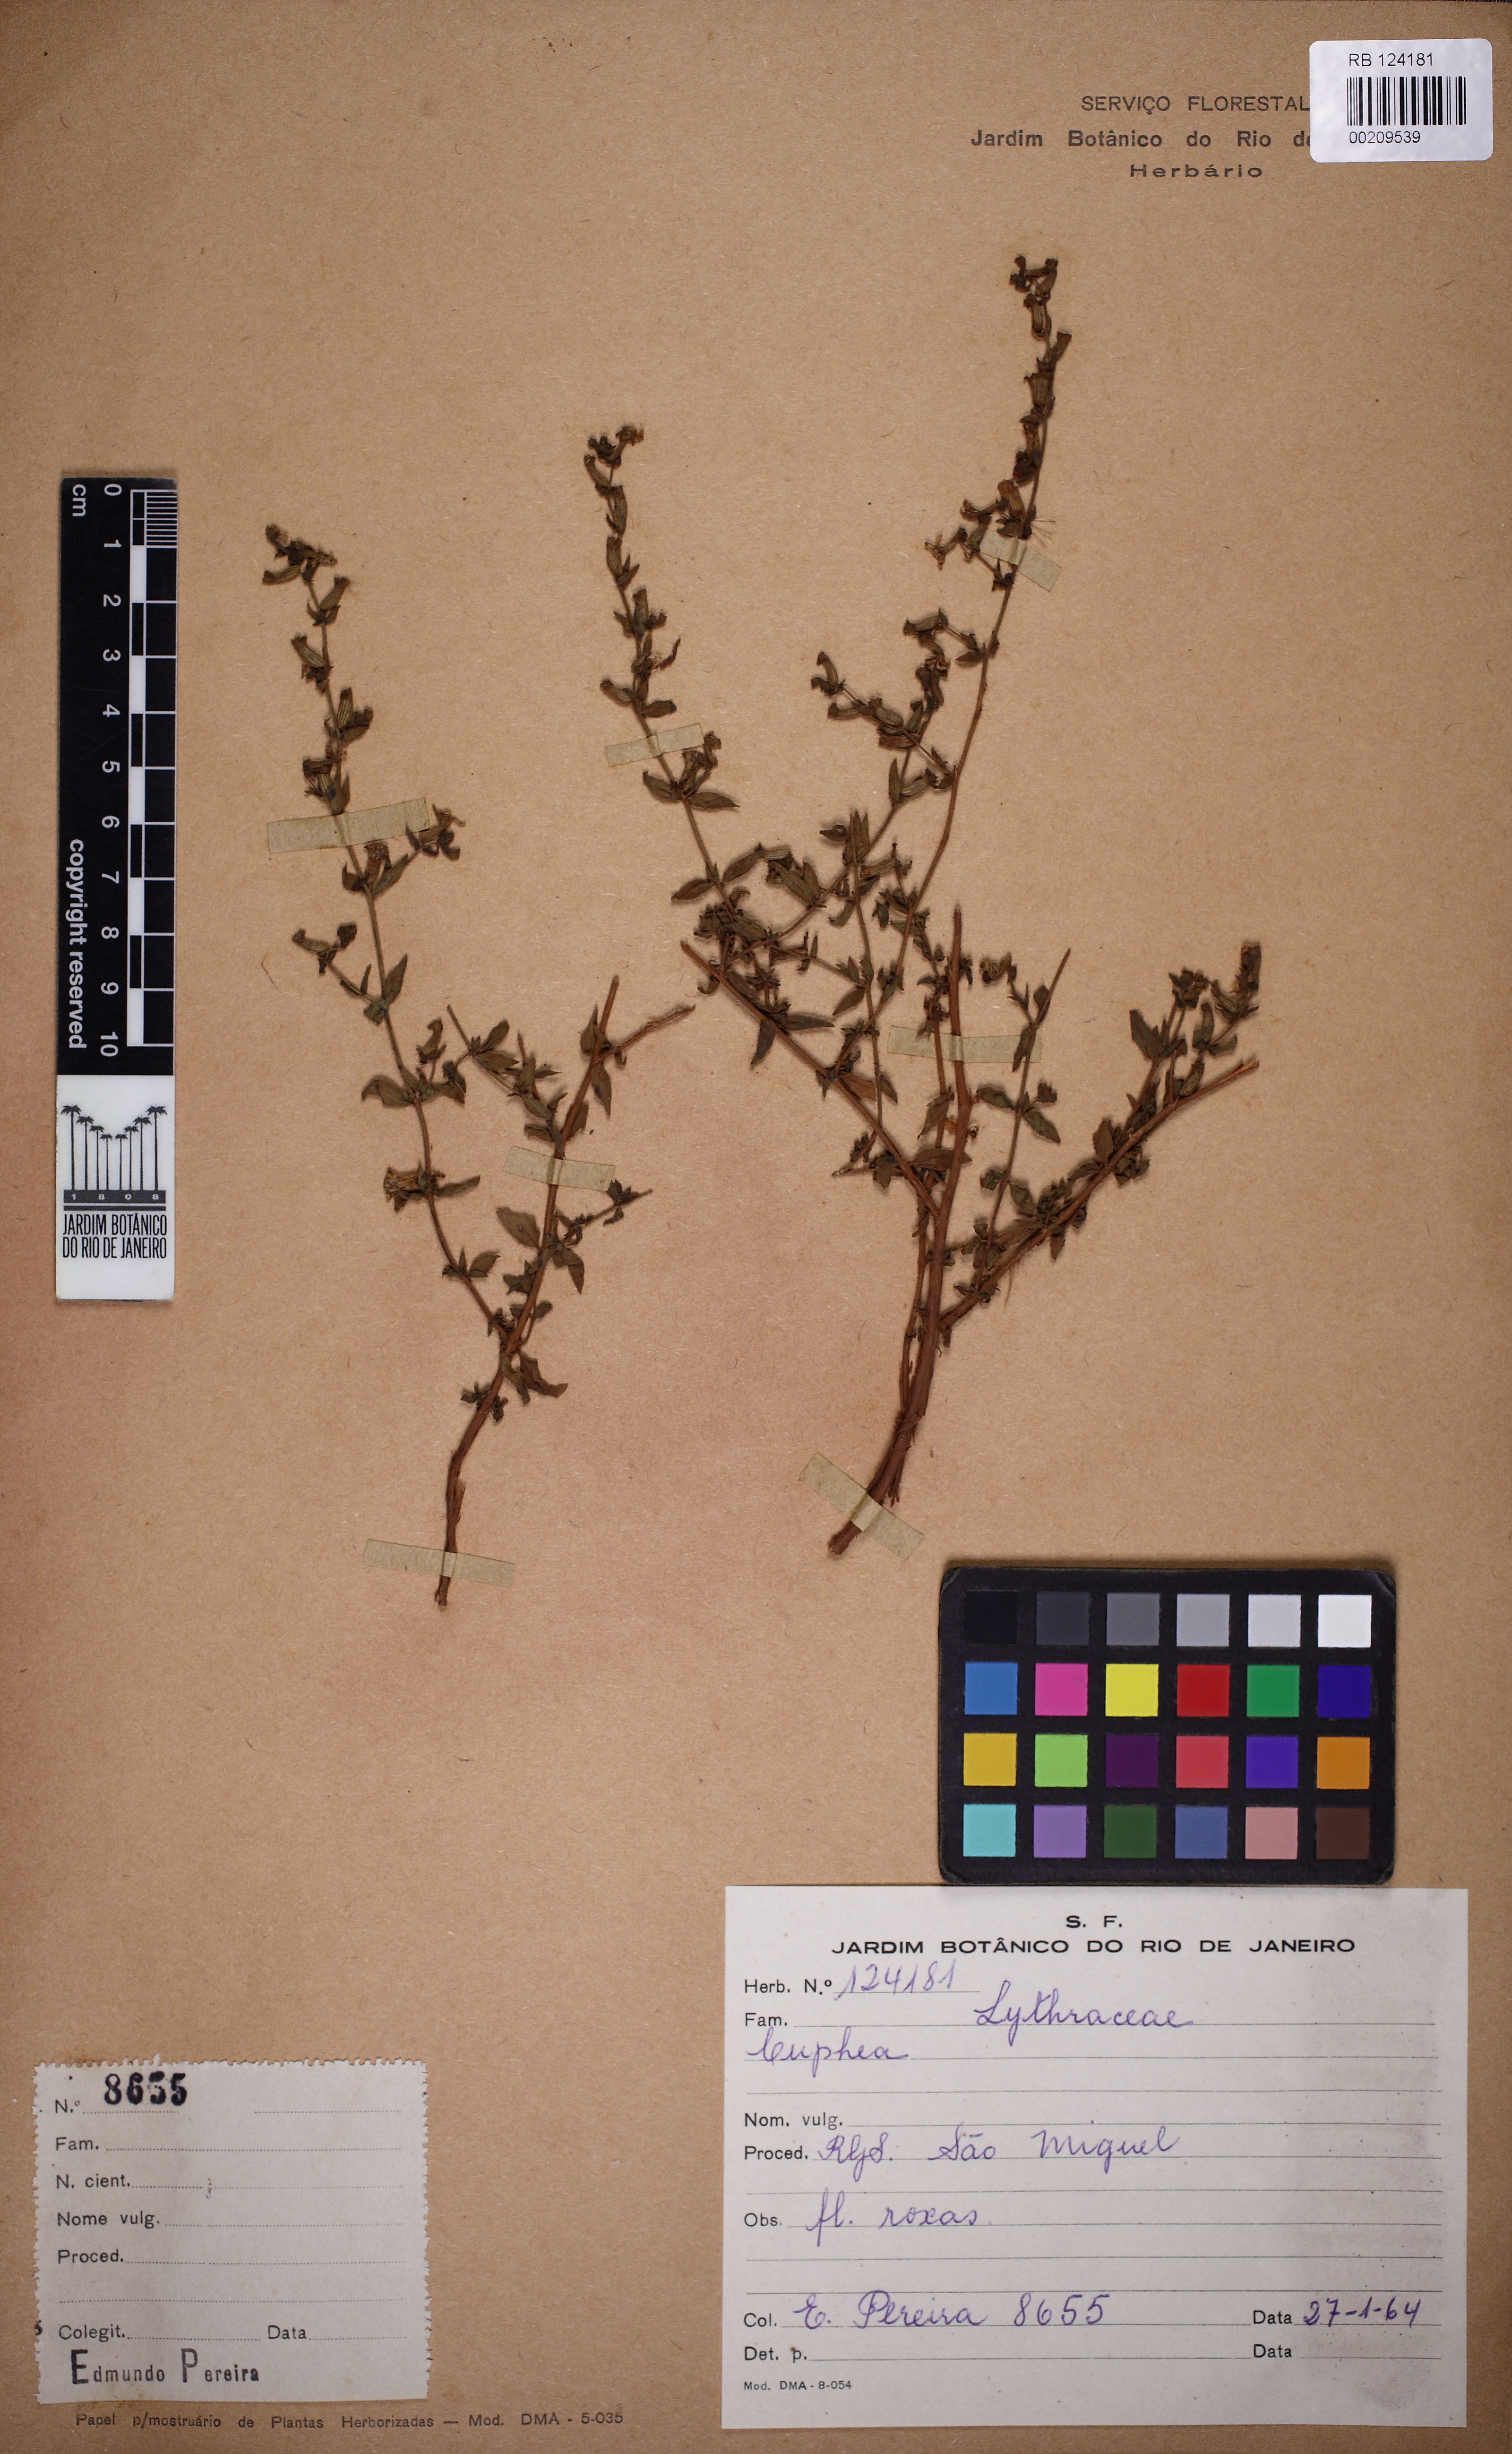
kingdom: Plantae
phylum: Tracheophyta
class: Magnoliopsida
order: Myrtales
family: Lythraceae
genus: Cuphea
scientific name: Cuphea
